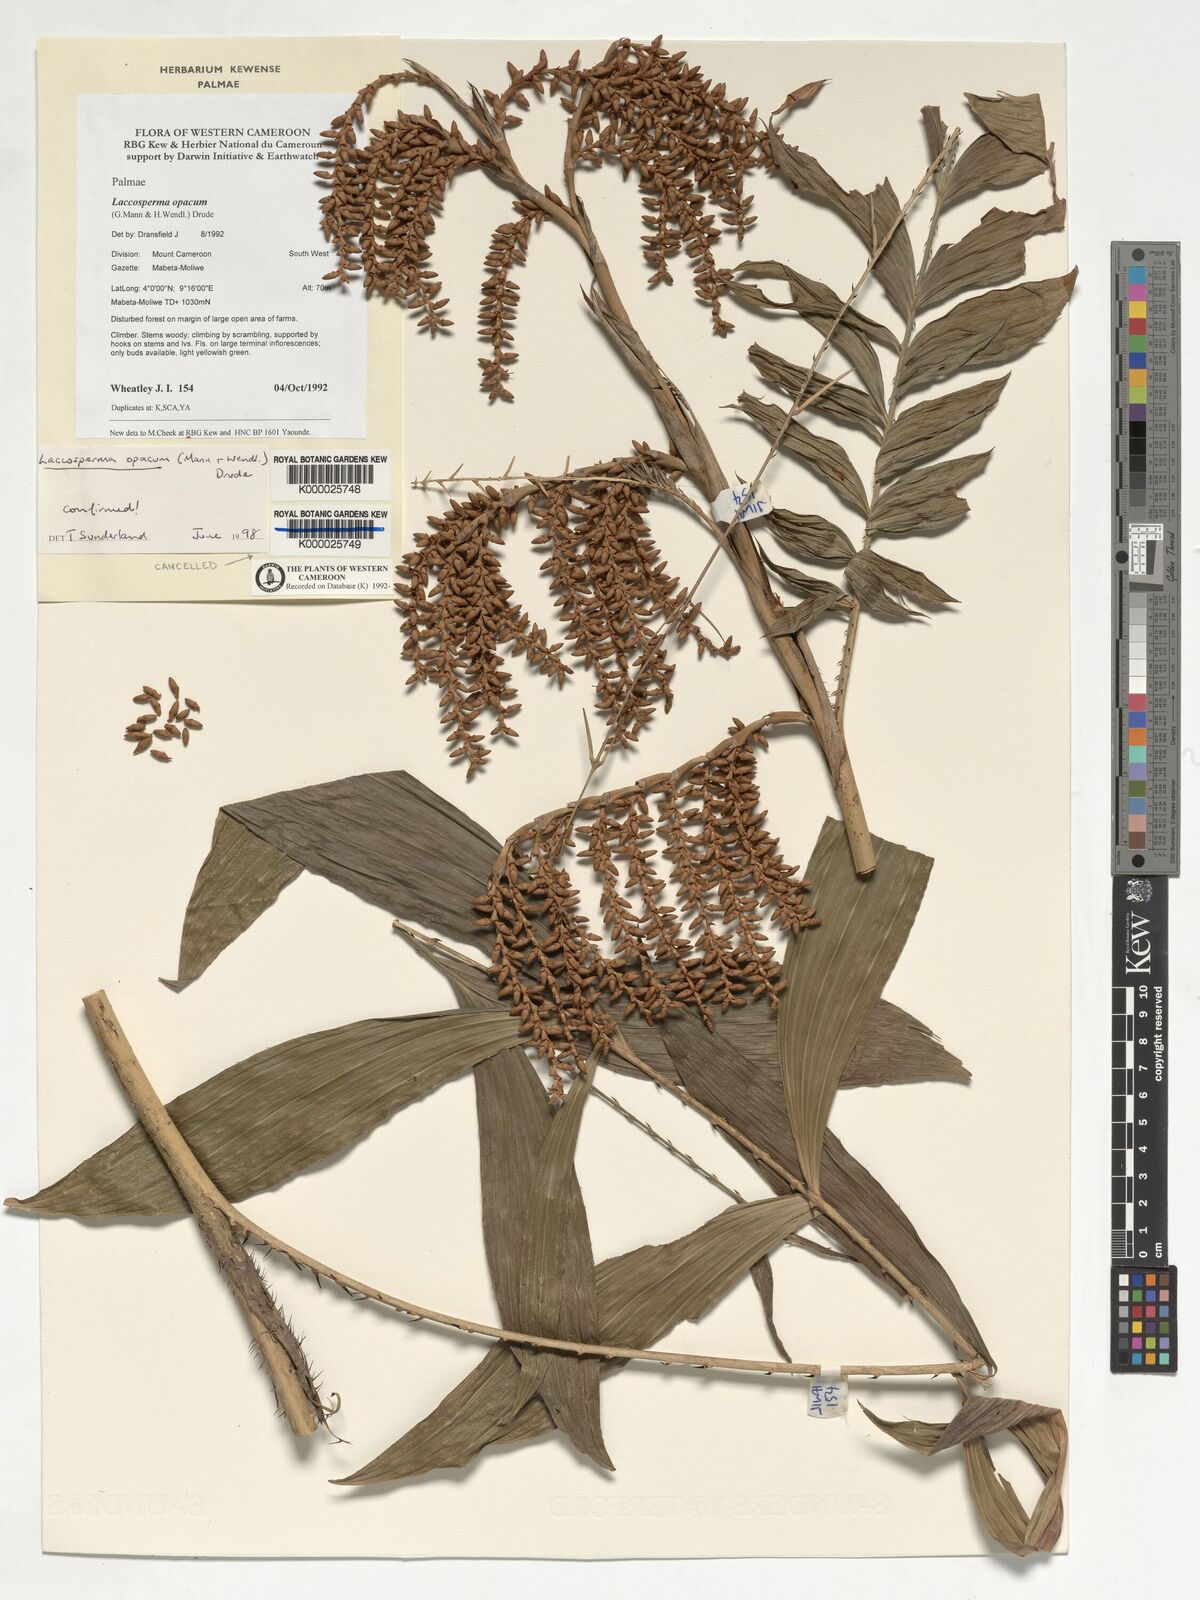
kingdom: Plantae
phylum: Tracheophyta
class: Liliopsida
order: Arecales
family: Arecaceae
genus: Laccosperma
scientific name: Laccosperma opacum
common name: Rattan
